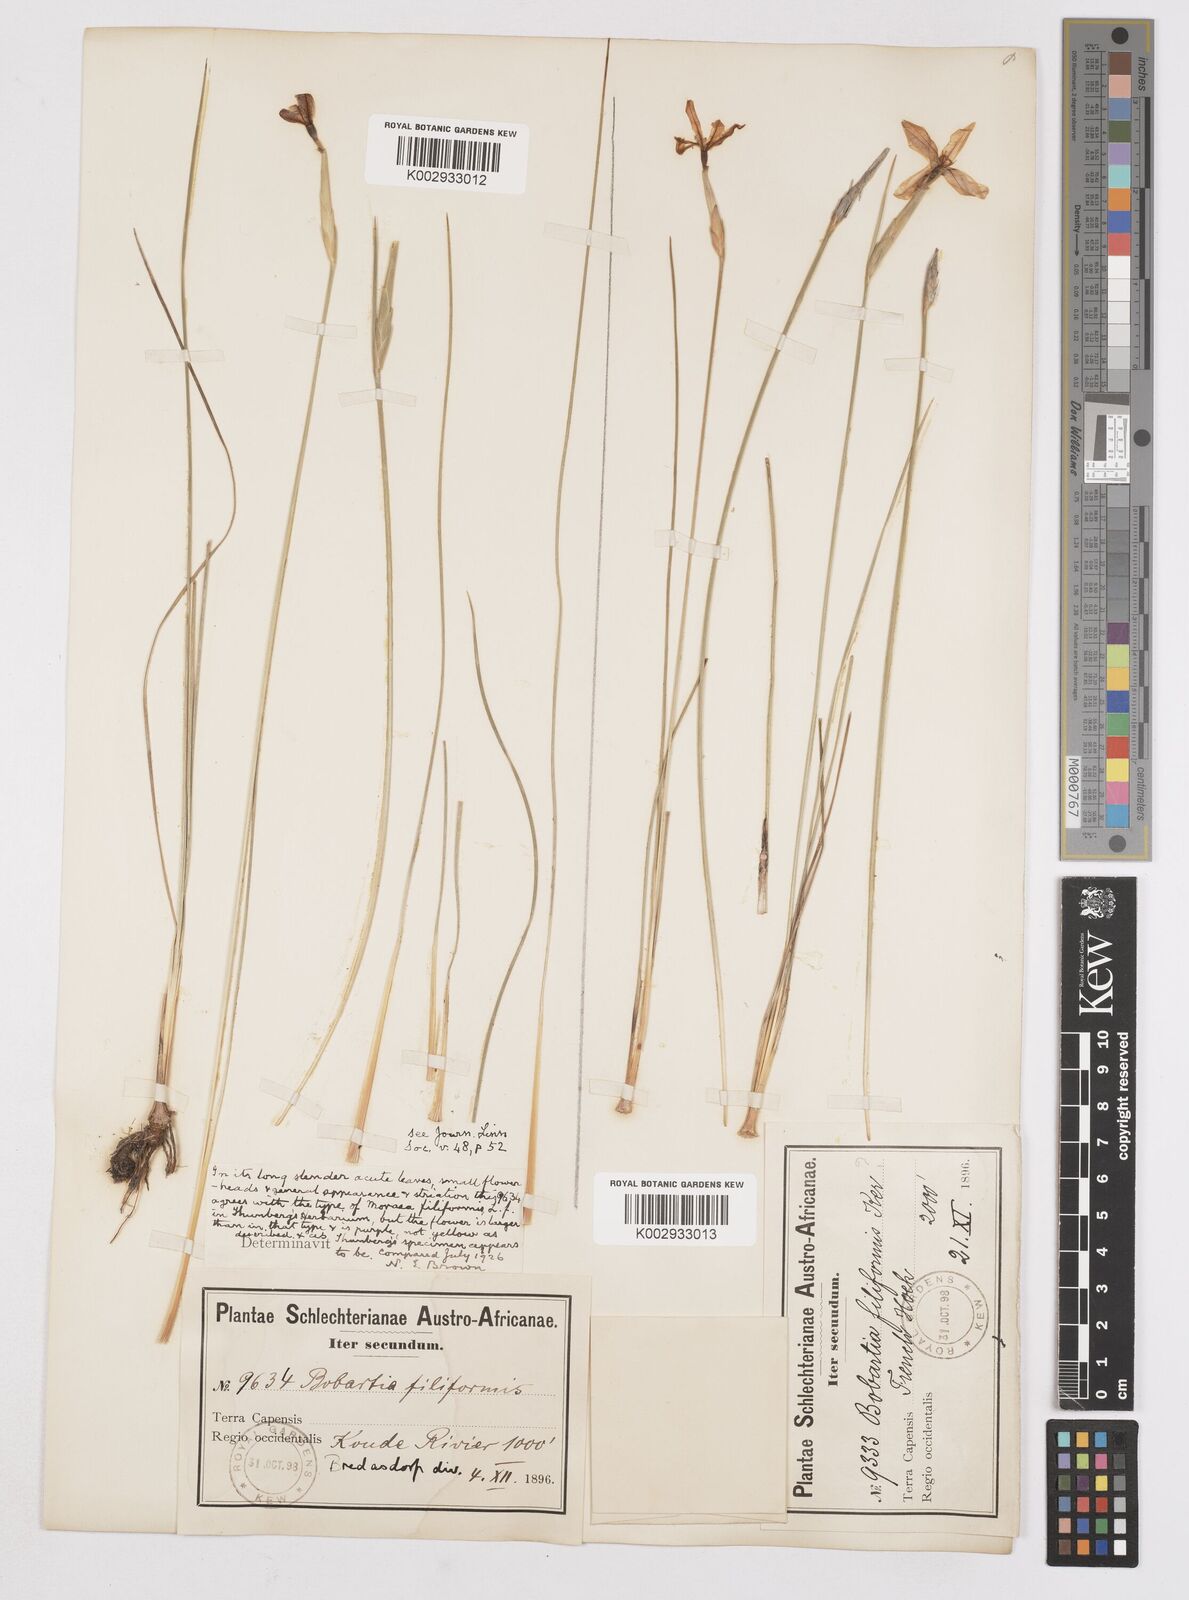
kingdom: Plantae
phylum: Tracheophyta
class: Liliopsida
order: Asparagales
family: Iridaceae
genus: Bobartia
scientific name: Bobartia filiformis
